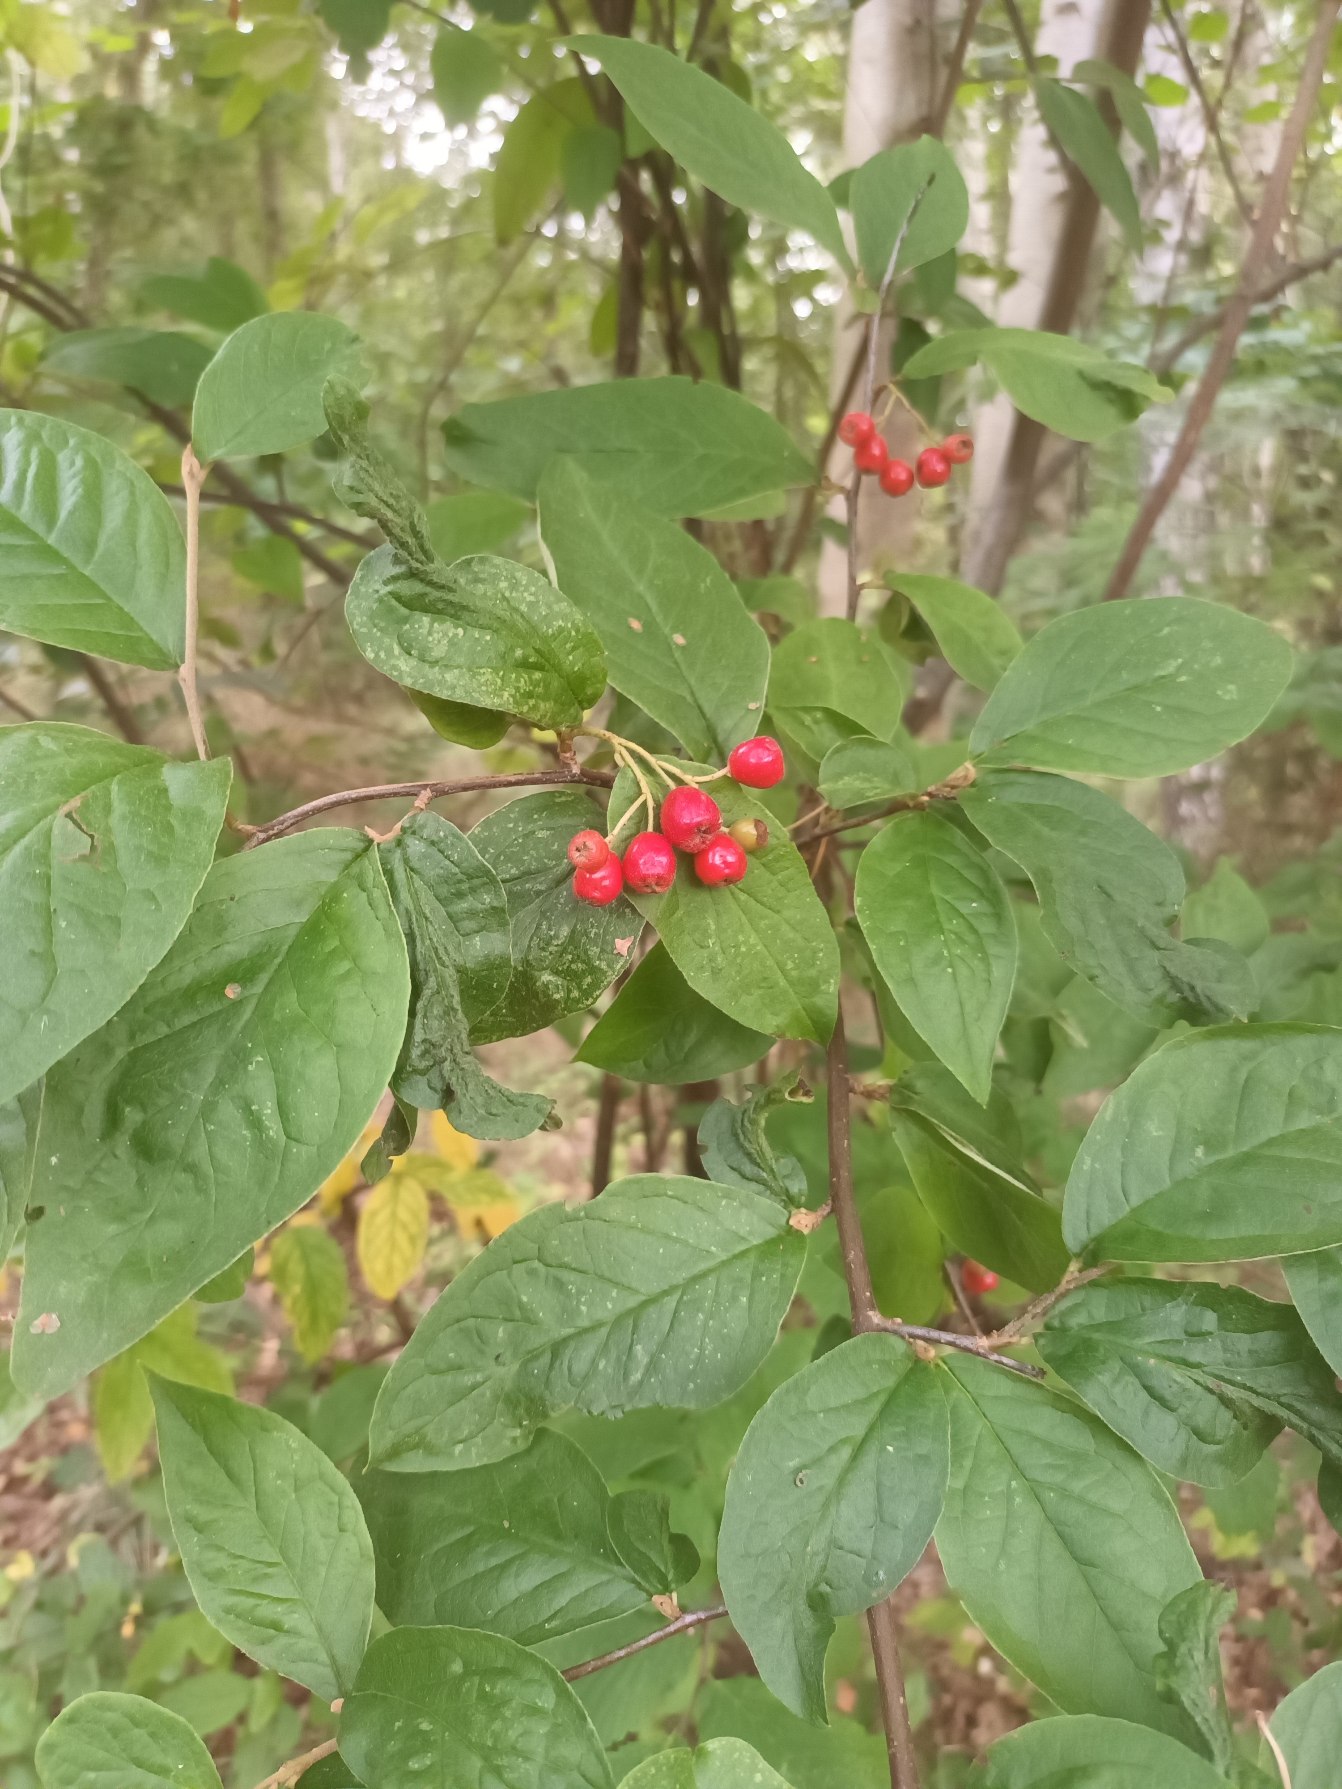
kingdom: Plantae
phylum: Tracheophyta
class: Magnoliopsida
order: Rosales
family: Rosaceae
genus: Cotoneaster
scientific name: Cotoneaster bullatus
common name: Storbladet dværgmispel
